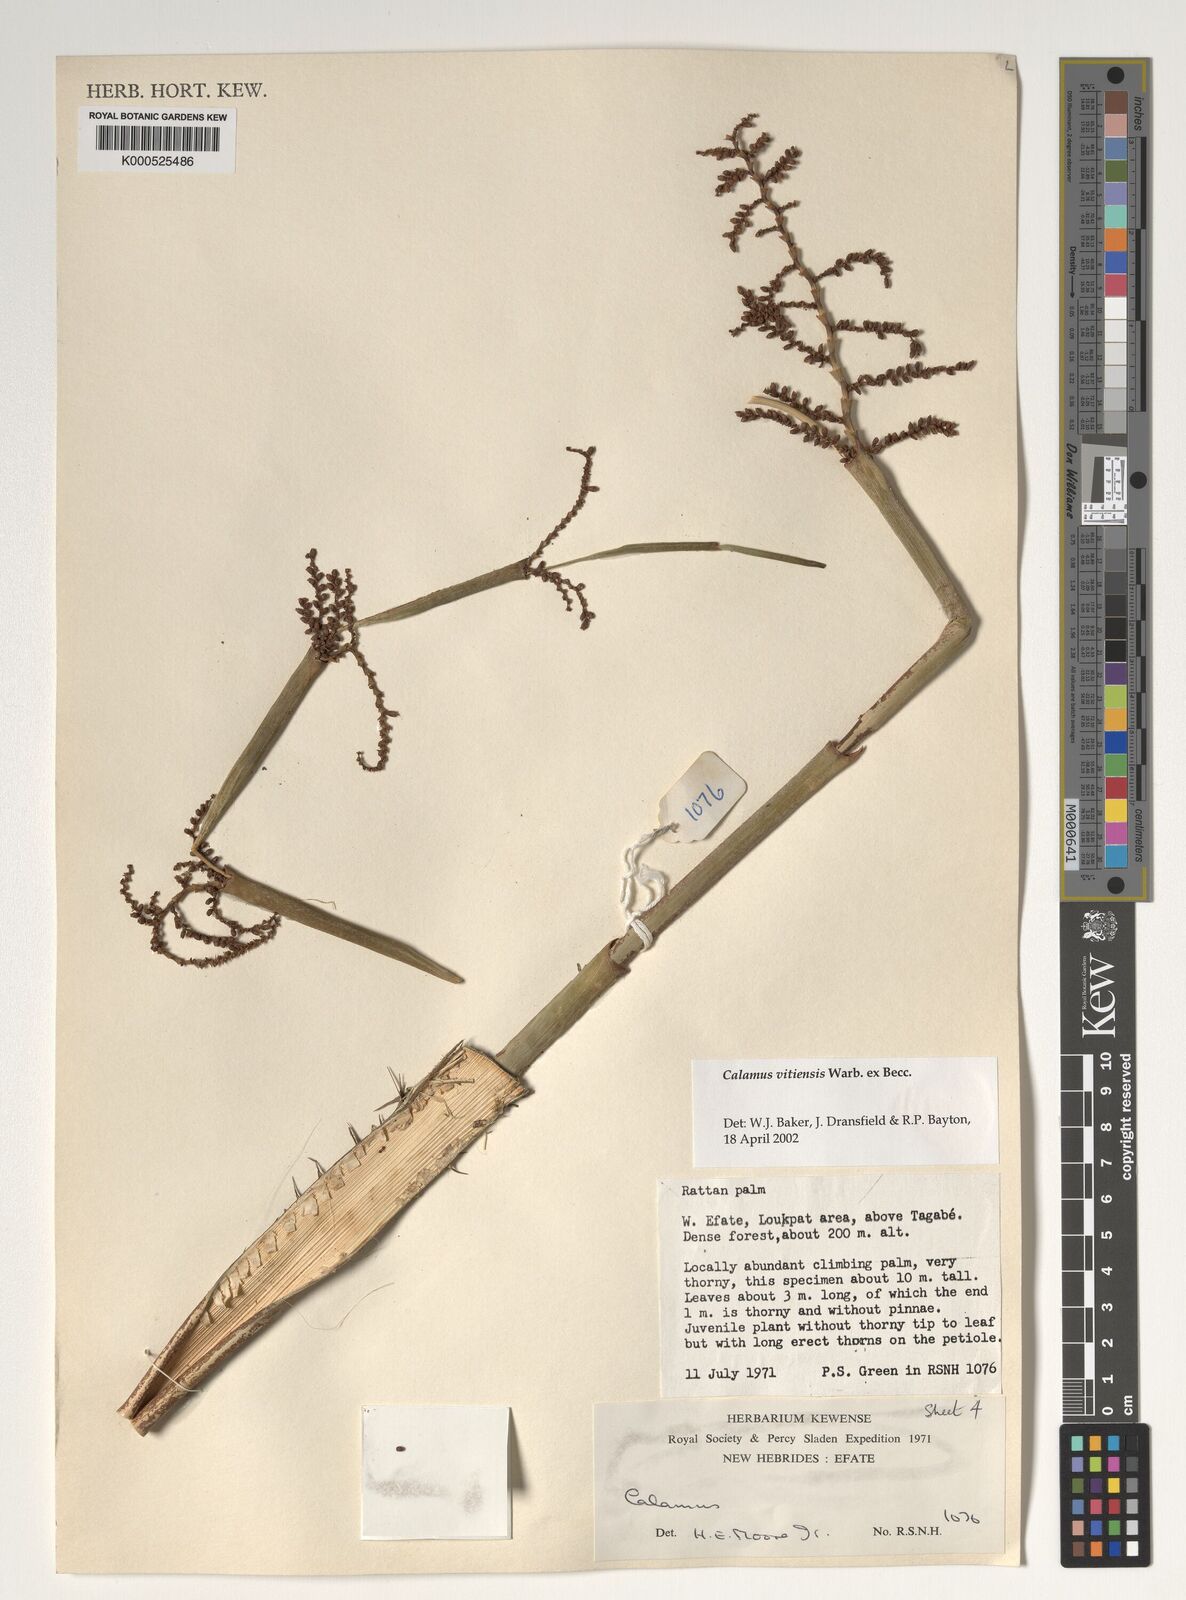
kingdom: Plantae
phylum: Tracheophyta
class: Liliopsida
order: Arecales
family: Arecaceae
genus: Calamus
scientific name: Calamus vitiensis
